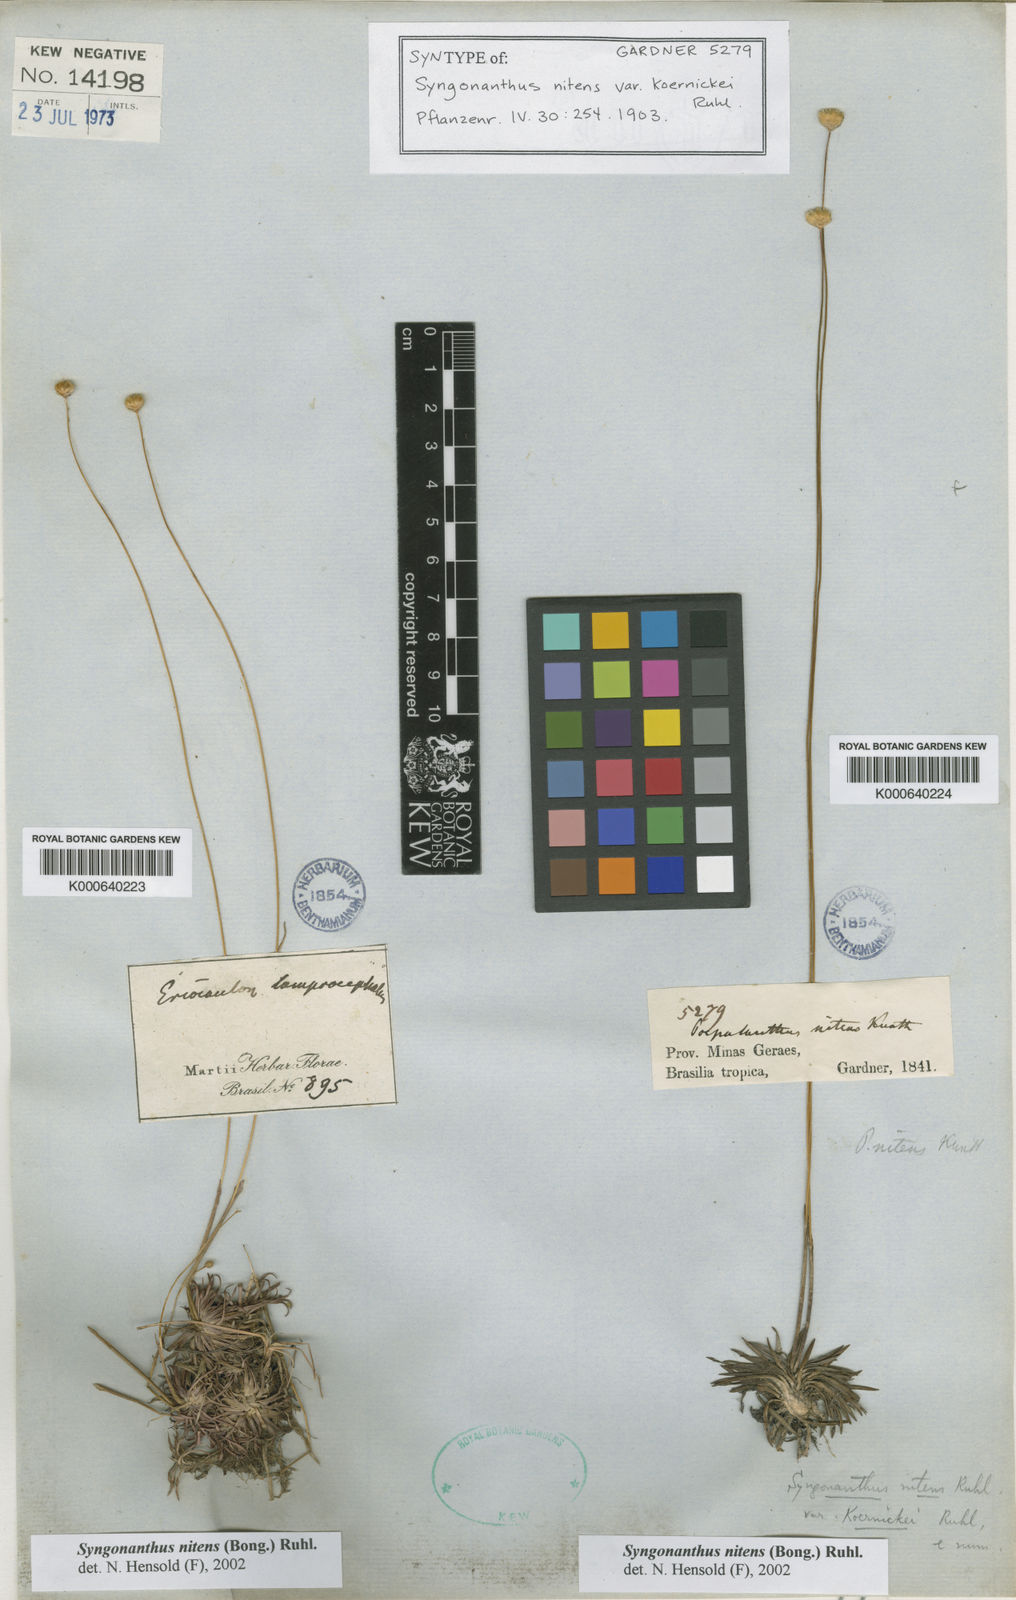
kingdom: Plantae
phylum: Tracheophyta
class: Liliopsida
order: Poales
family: Eriocaulaceae
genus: Syngonanthus
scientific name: Syngonanthus nitens
